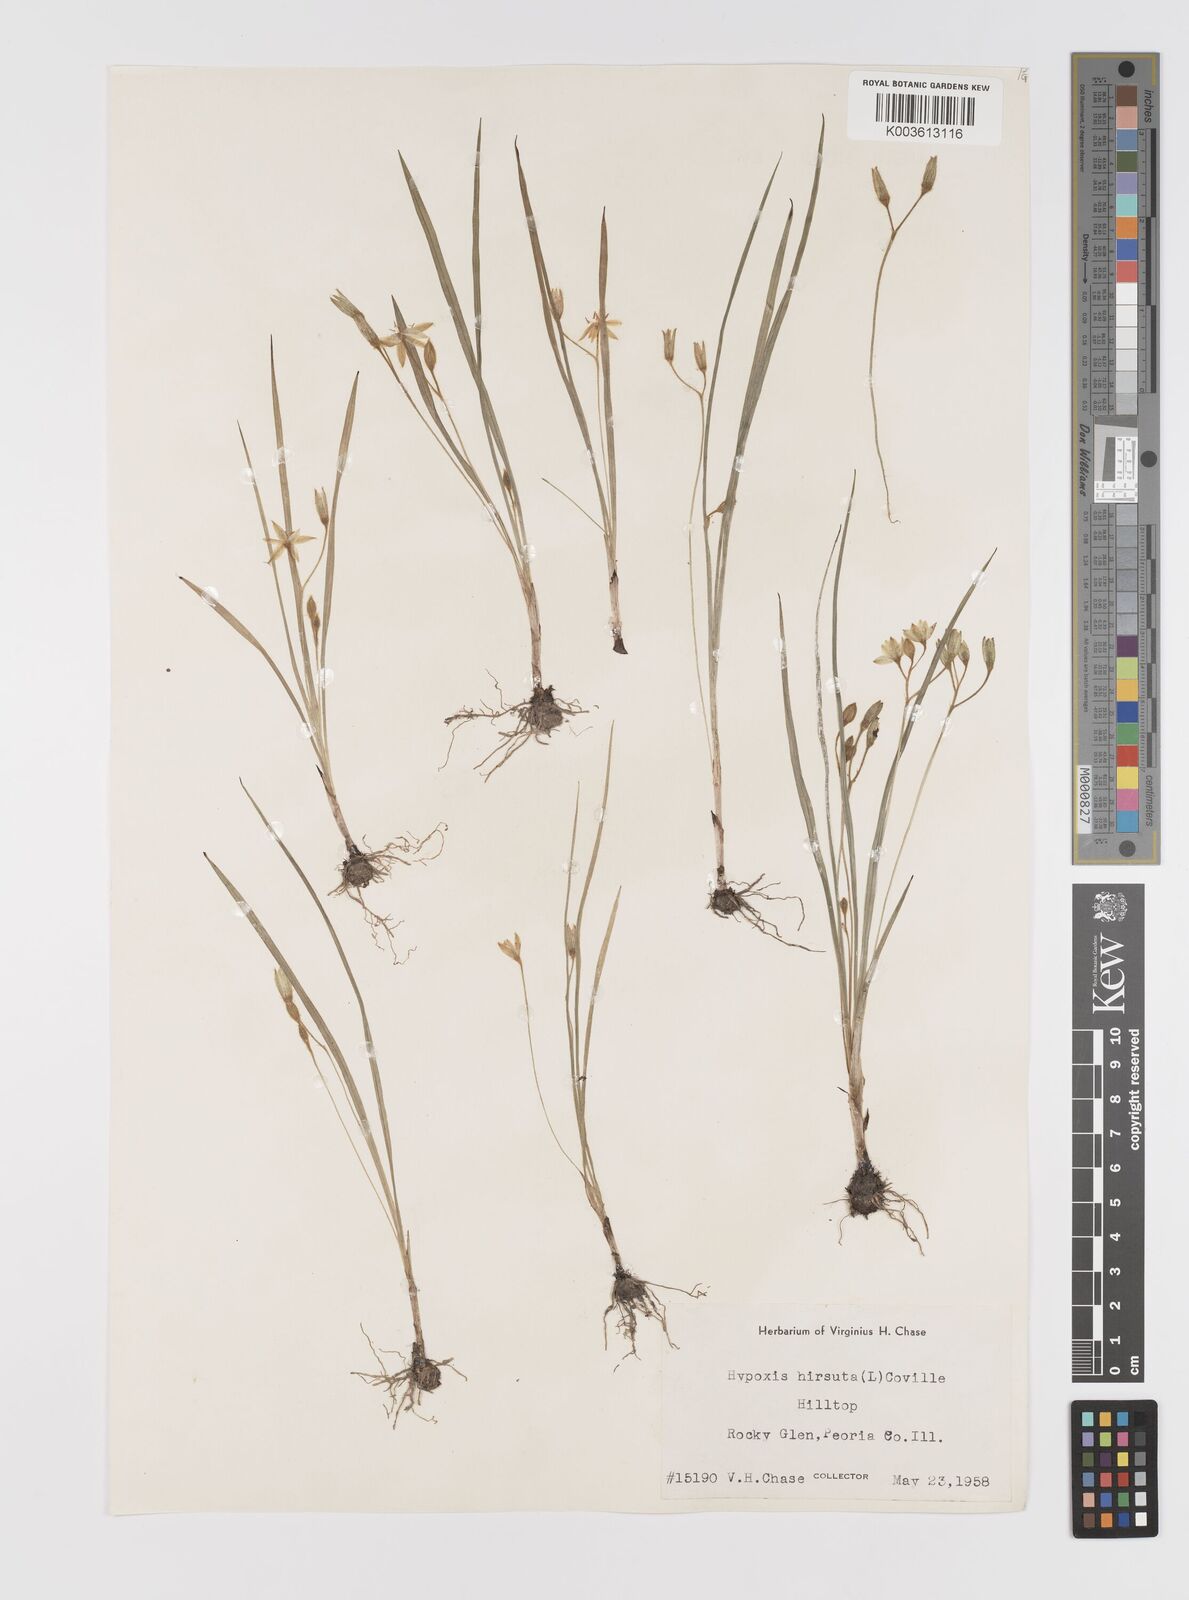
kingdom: Plantae
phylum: Tracheophyta
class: Liliopsida
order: Asparagales
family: Hypoxidaceae
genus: Hypoxis
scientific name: Hypoxis hirsuta
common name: Common goldstar
